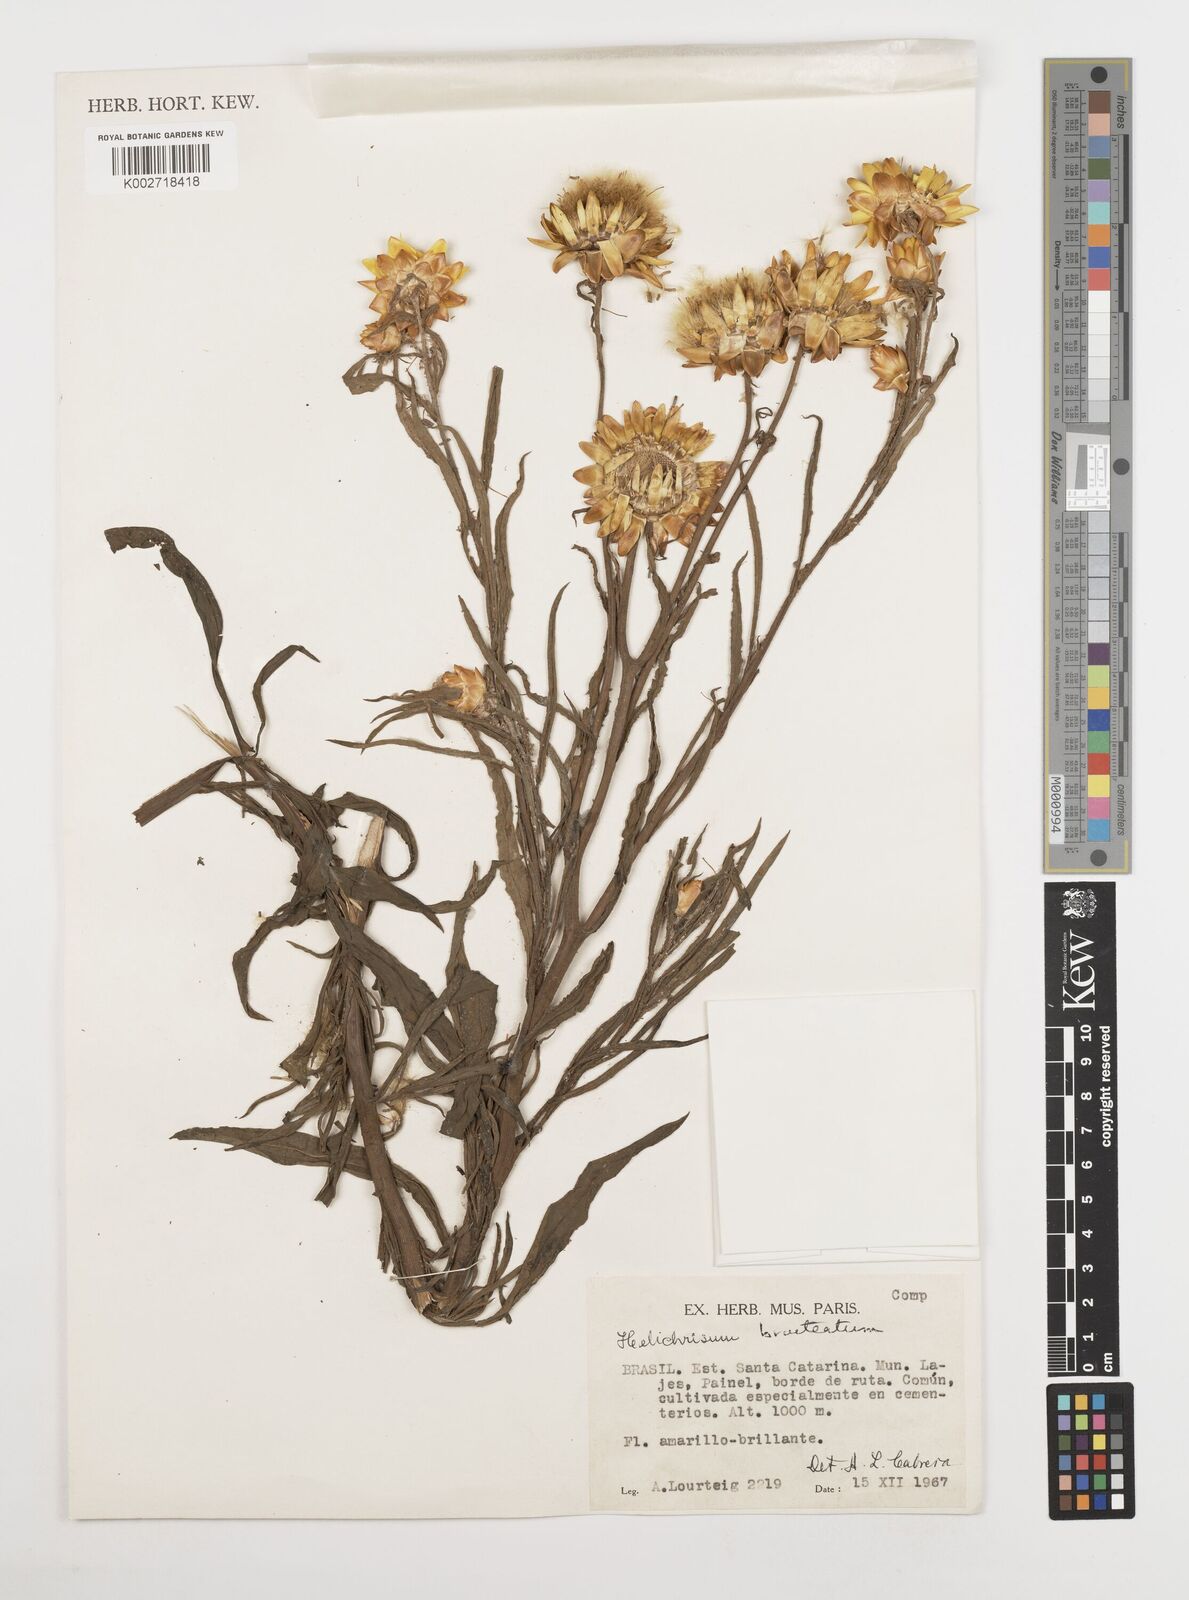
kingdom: Plantae
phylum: Tracheophyta
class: Magnoliopsida
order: Asterales
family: Asteraceae
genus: Xerochrysum
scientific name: Xerochrysum bracteatum
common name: Bracted strawflower
